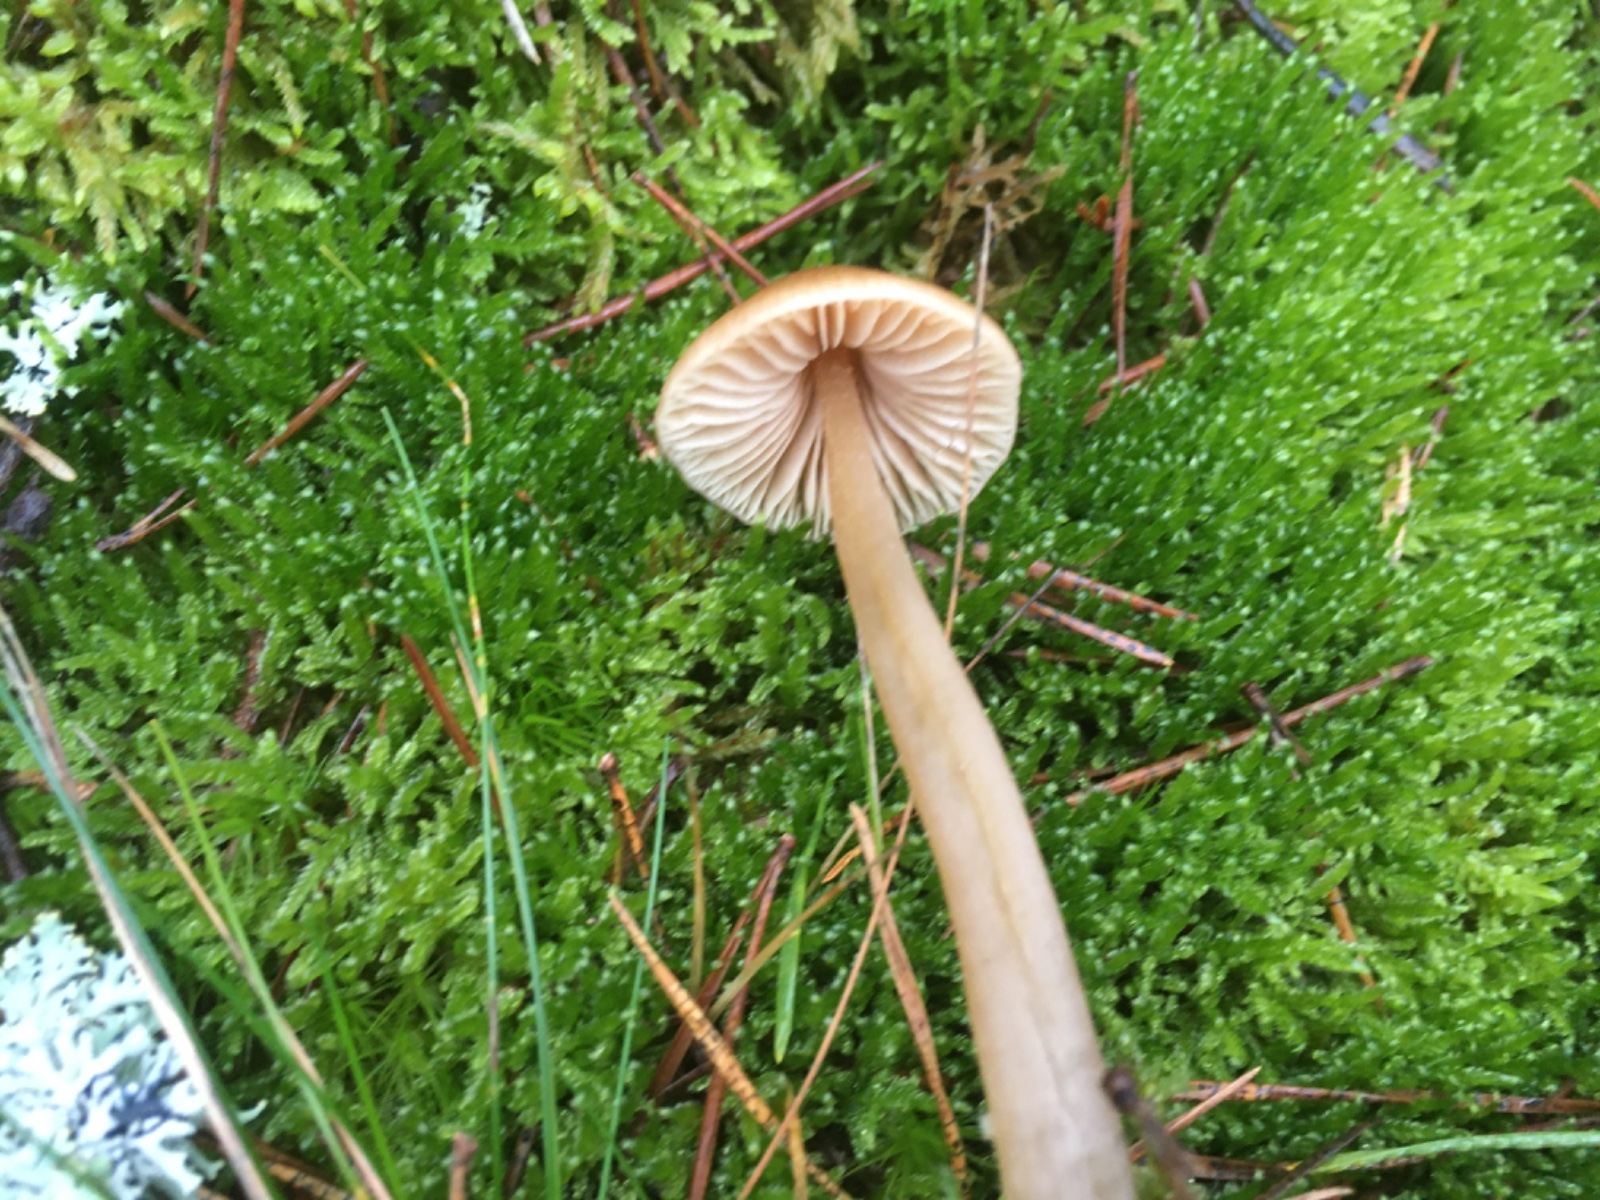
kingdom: Fungi
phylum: Basidiomycota
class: Agaricomycetes
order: Agaricales
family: Entolomataceae
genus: Entoloma
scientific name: Entoloma cetratum
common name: voks-rødblad
